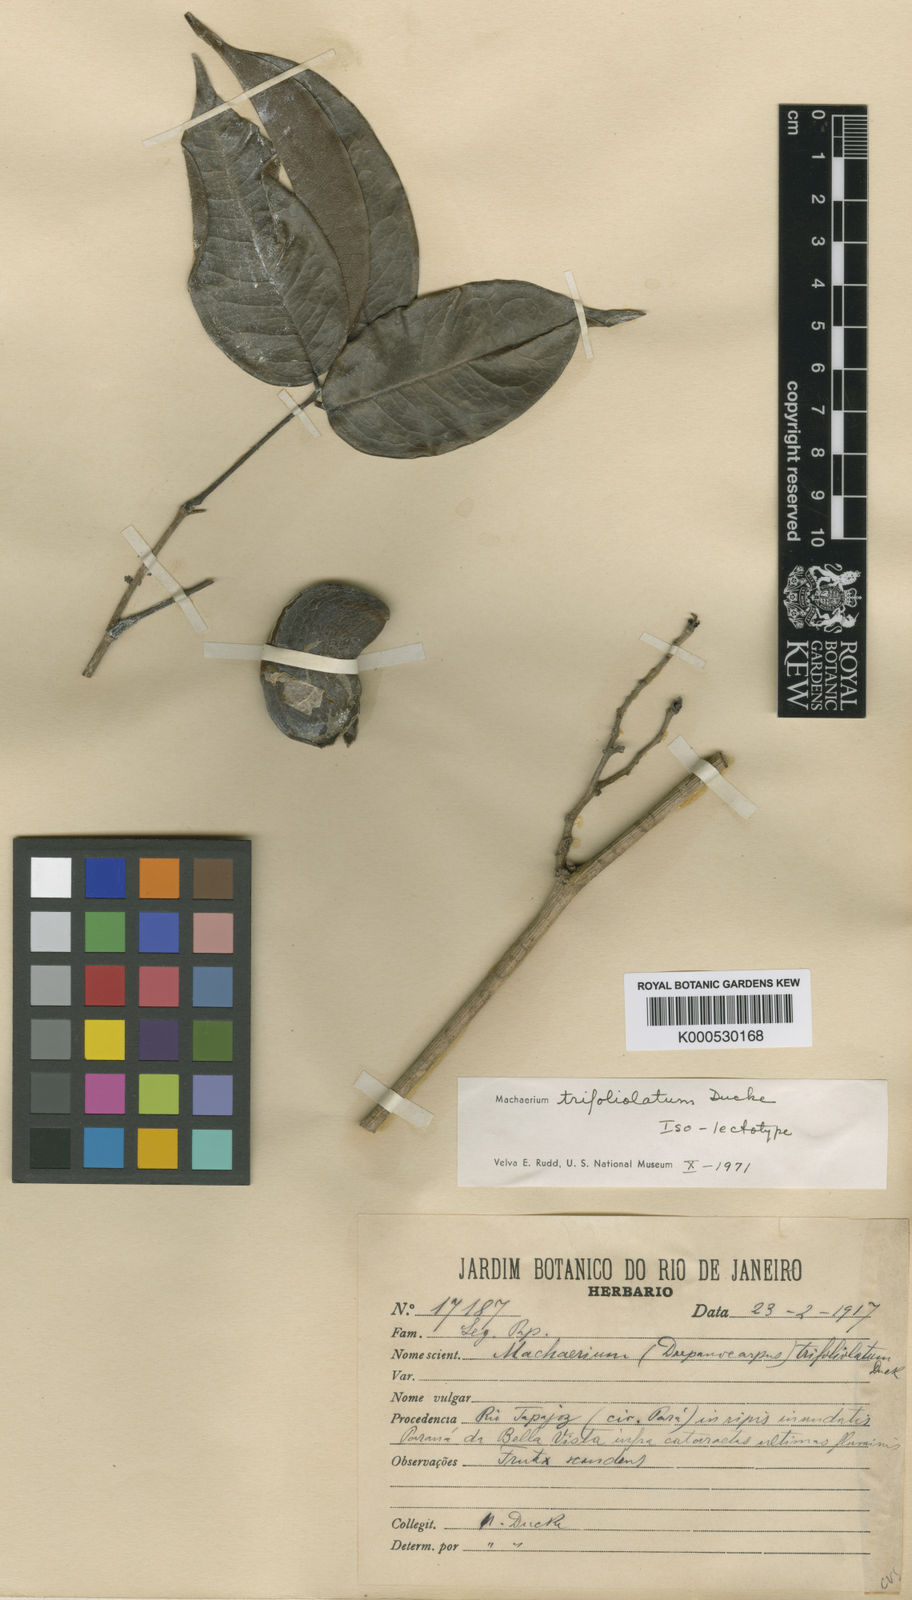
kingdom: Plantae
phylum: Tracheophyta
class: Magnoliopsida
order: Fabales
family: Fabaceae
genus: Machaerium
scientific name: Machaerium trifoliolatum
